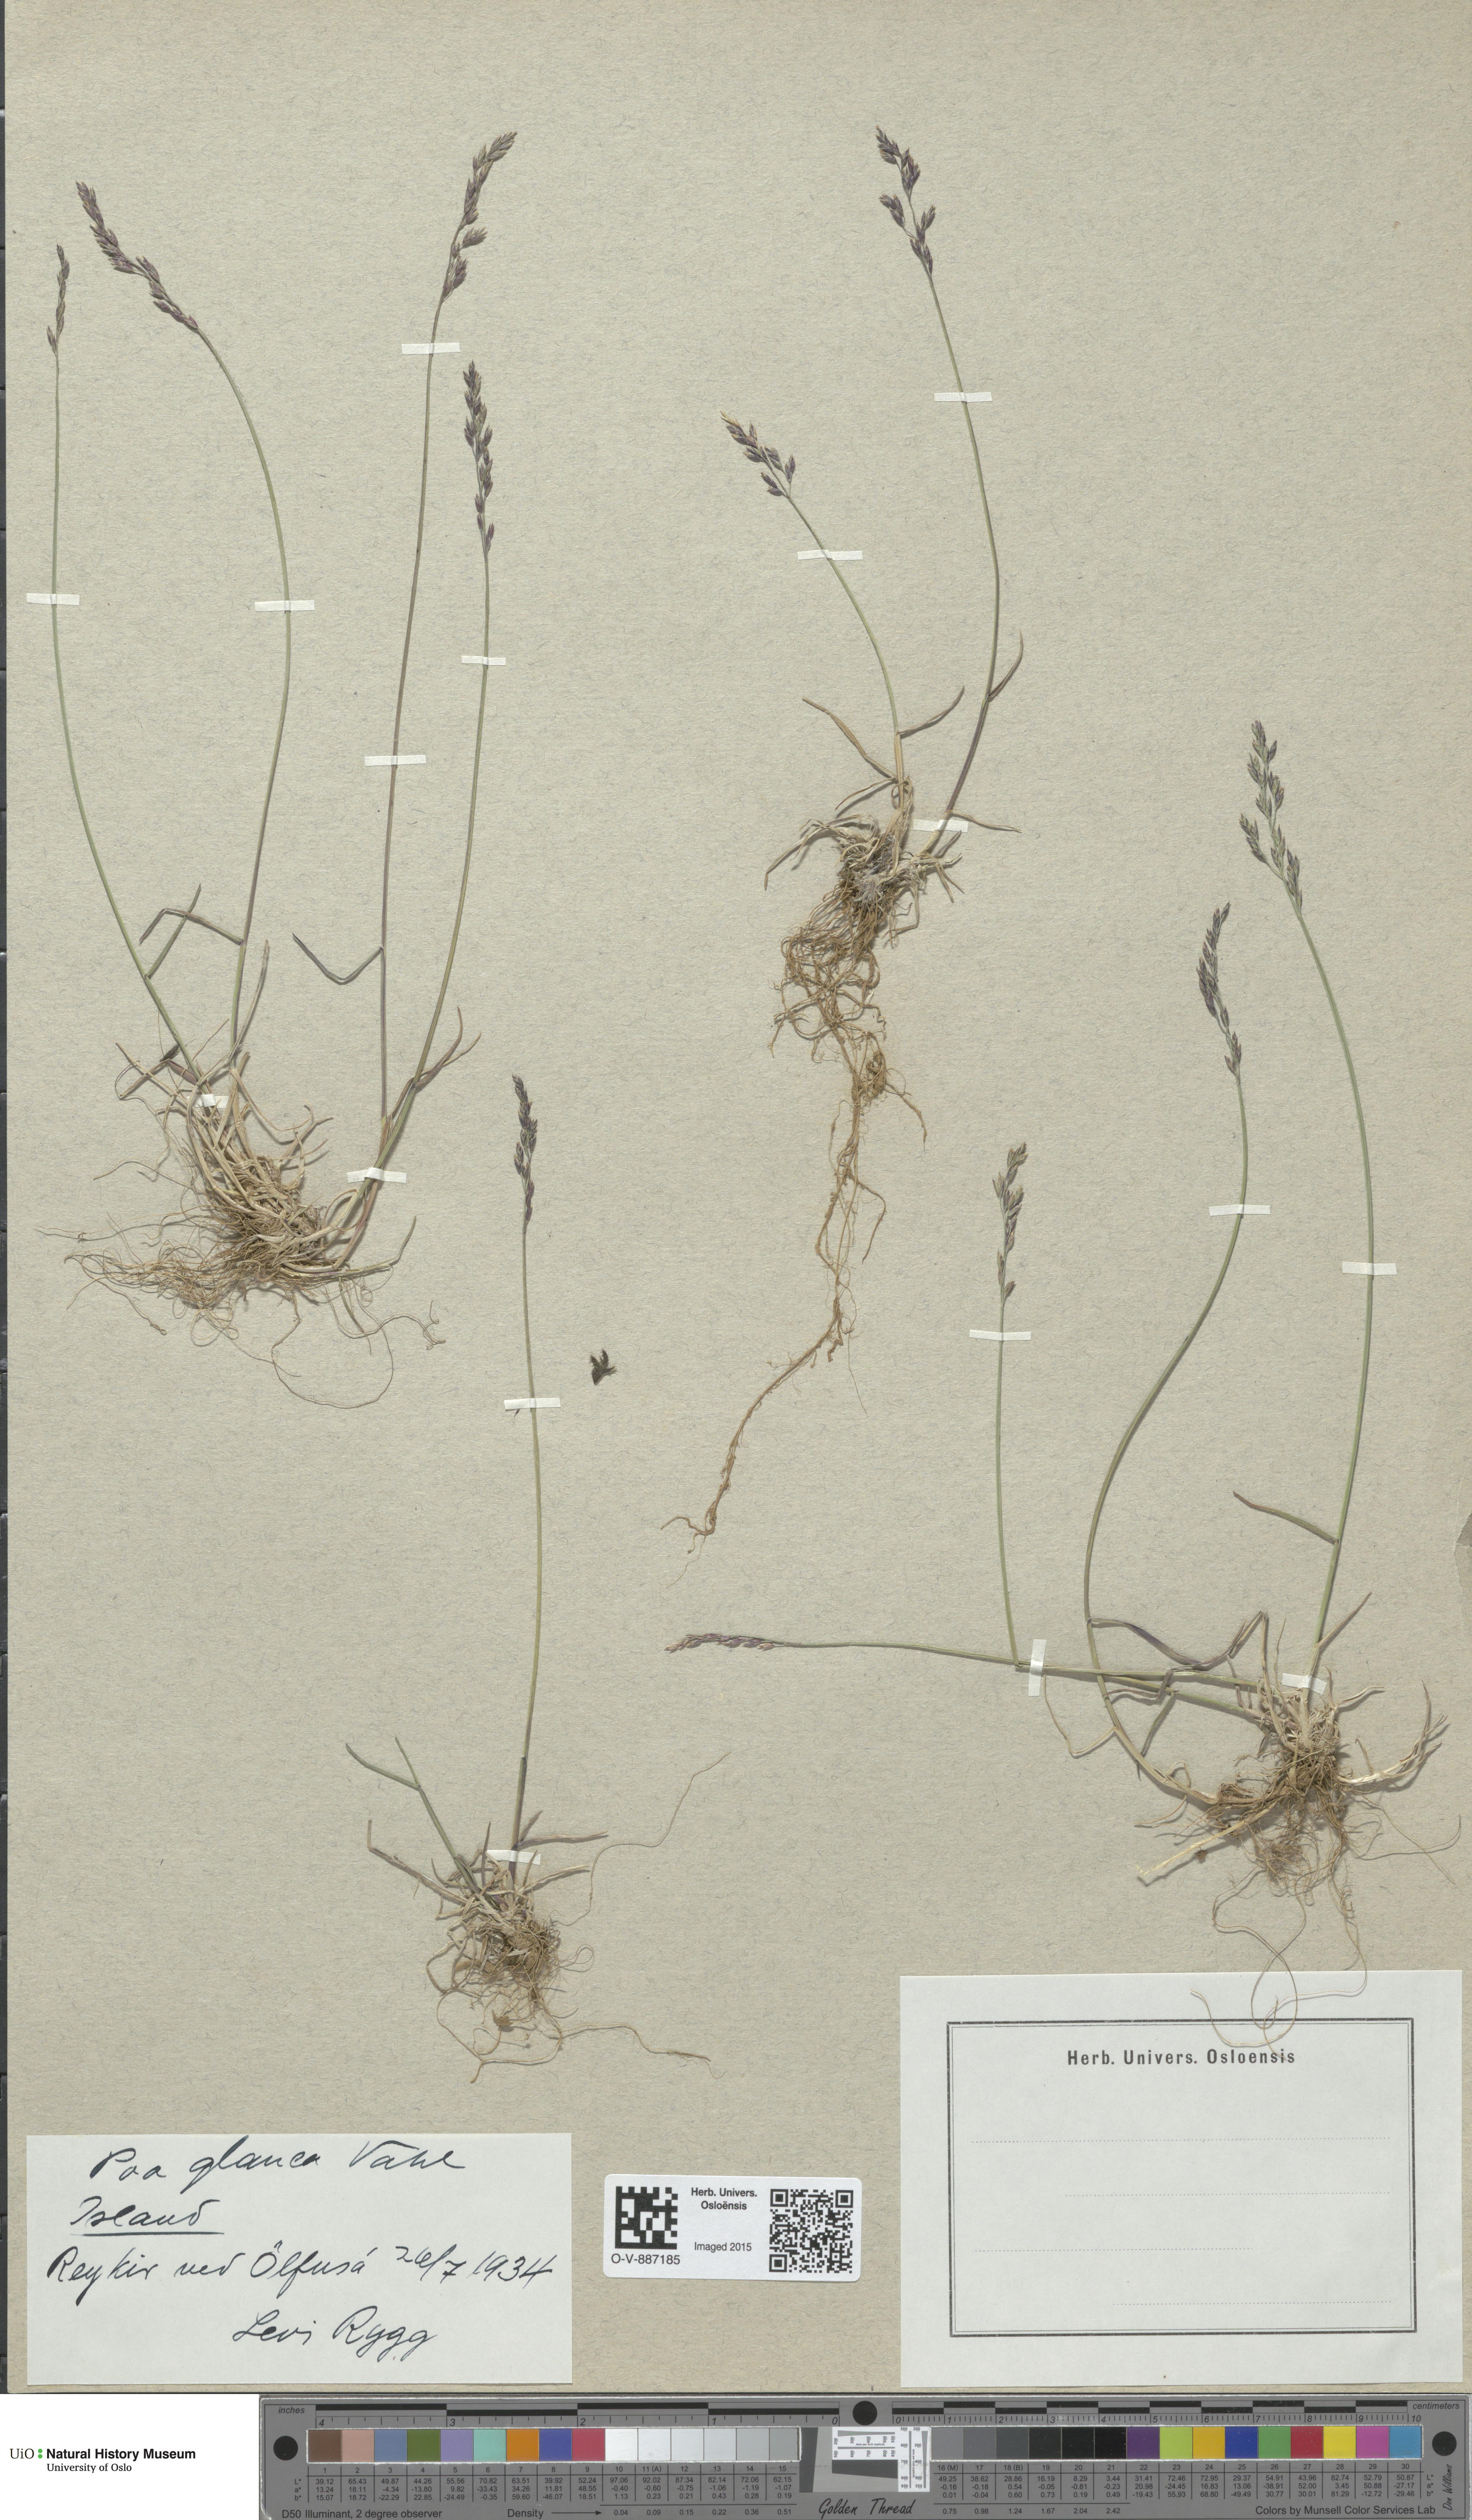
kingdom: Plantae
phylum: Tracheophyta
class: Liliopsida
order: Poales
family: Poaceae
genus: Poa
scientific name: Poa glauca
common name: Glaucous bluegrass
